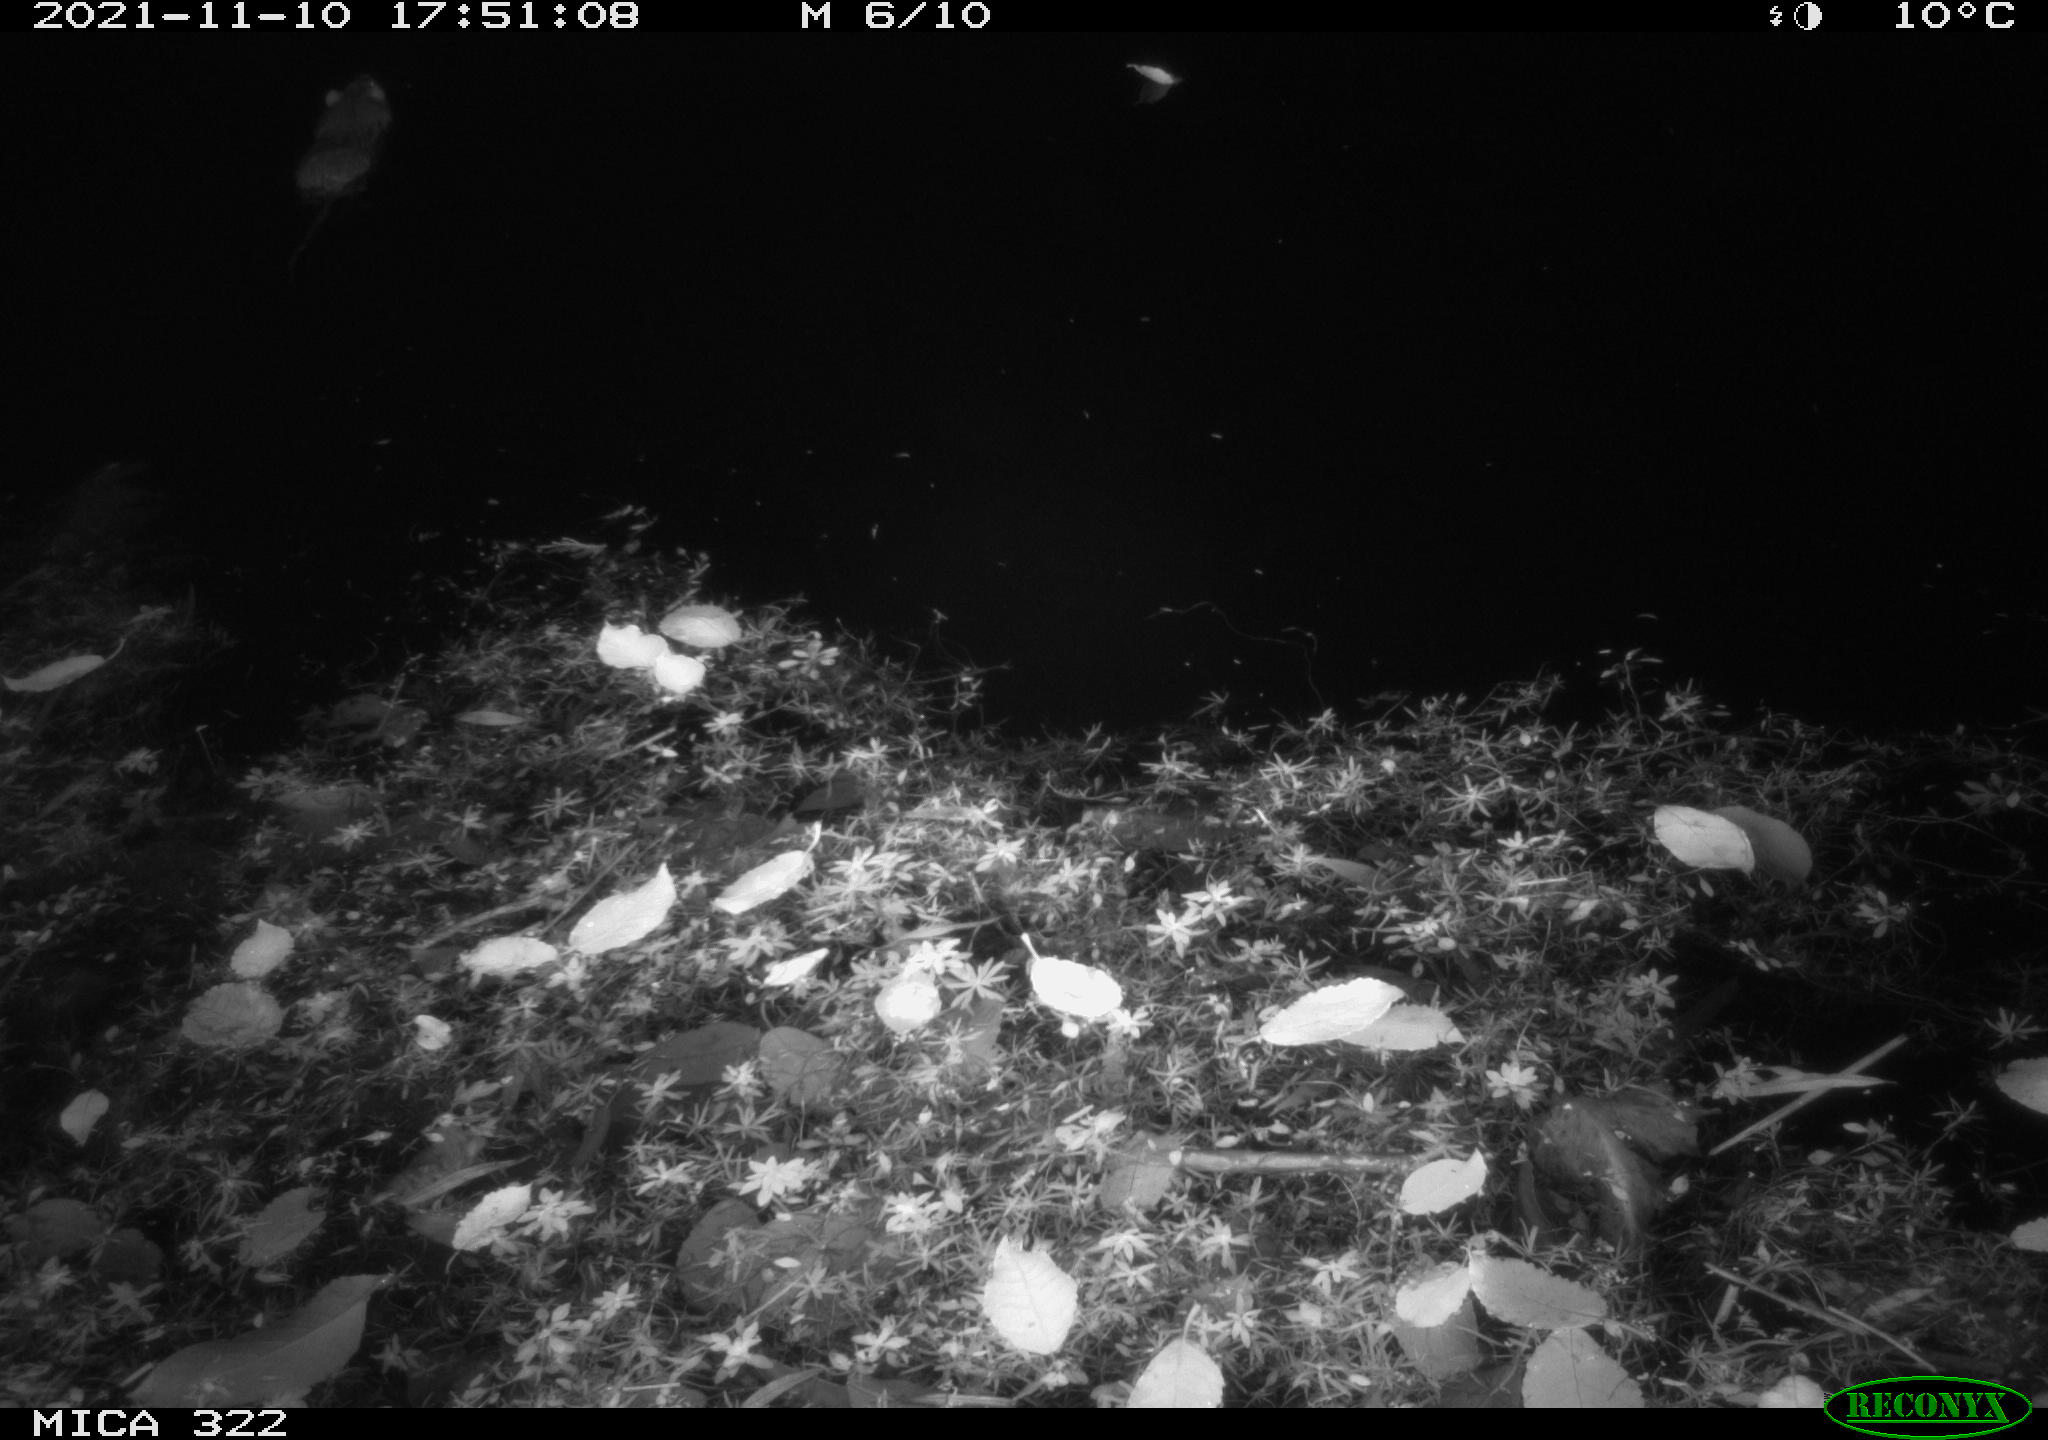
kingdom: Animalia
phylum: Chordata
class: Mammalia
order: Rodentia
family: Muridae
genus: Rattus
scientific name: Rattus norvegicus
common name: Brown rat
